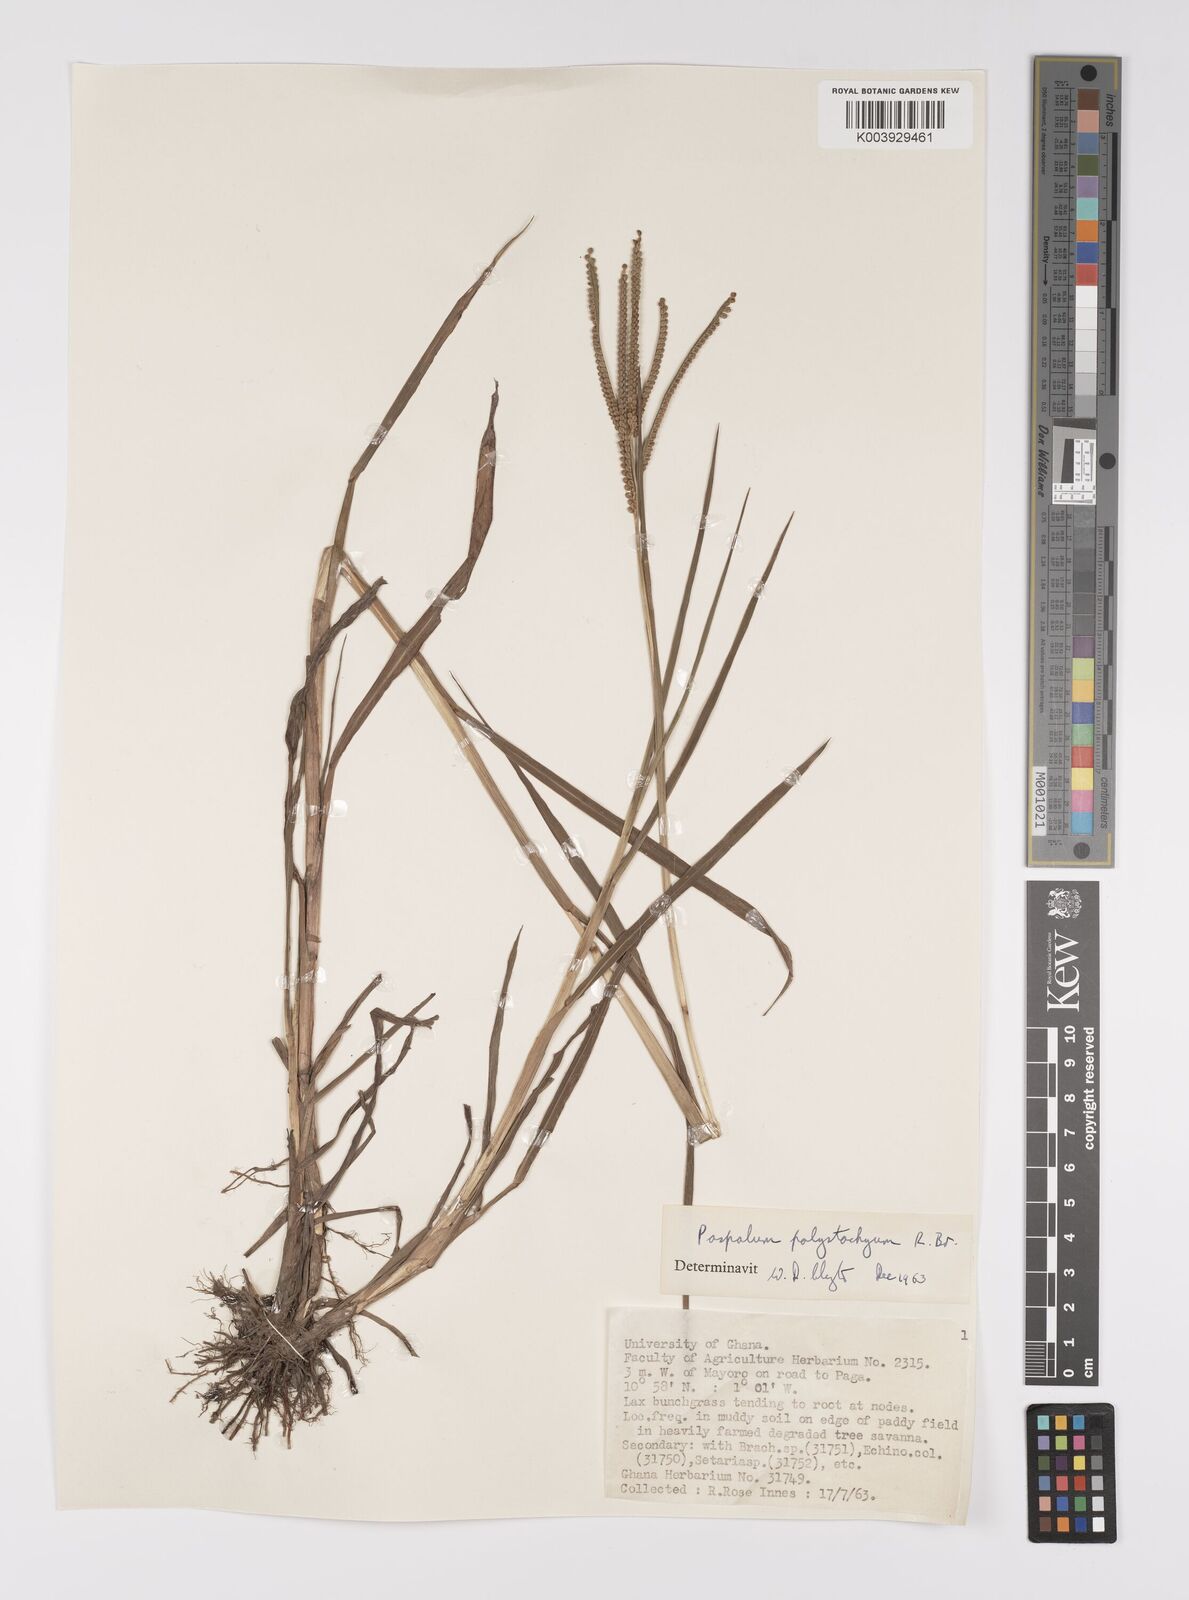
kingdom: Plantae
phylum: Tracheophyta
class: Liliopsida
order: Poales
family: Poaceae
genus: Paspalum
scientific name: Paspalum scrobiculatum
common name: Kodo millet
